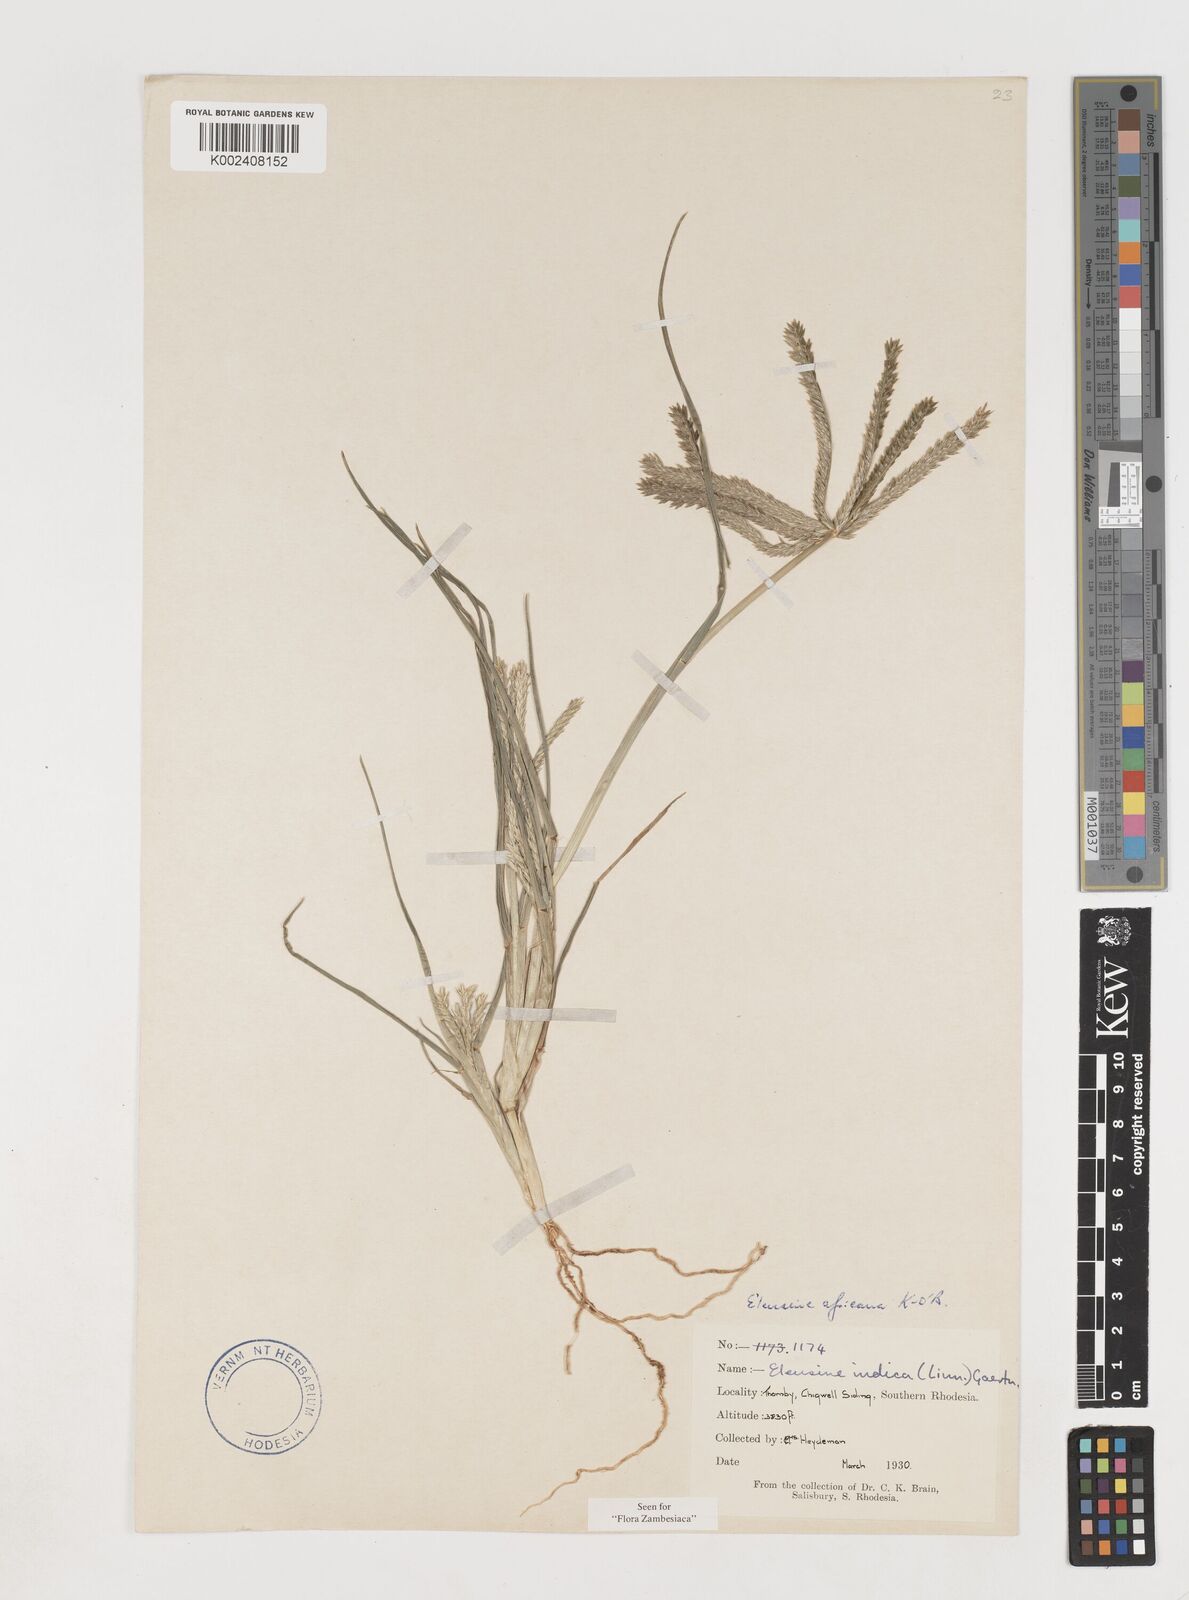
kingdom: Plantae
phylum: Tracheophyta
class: Liliopsida
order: Poales
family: Poaceae
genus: Eleusine
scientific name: Eleusine africana
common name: Wild african finger millet
